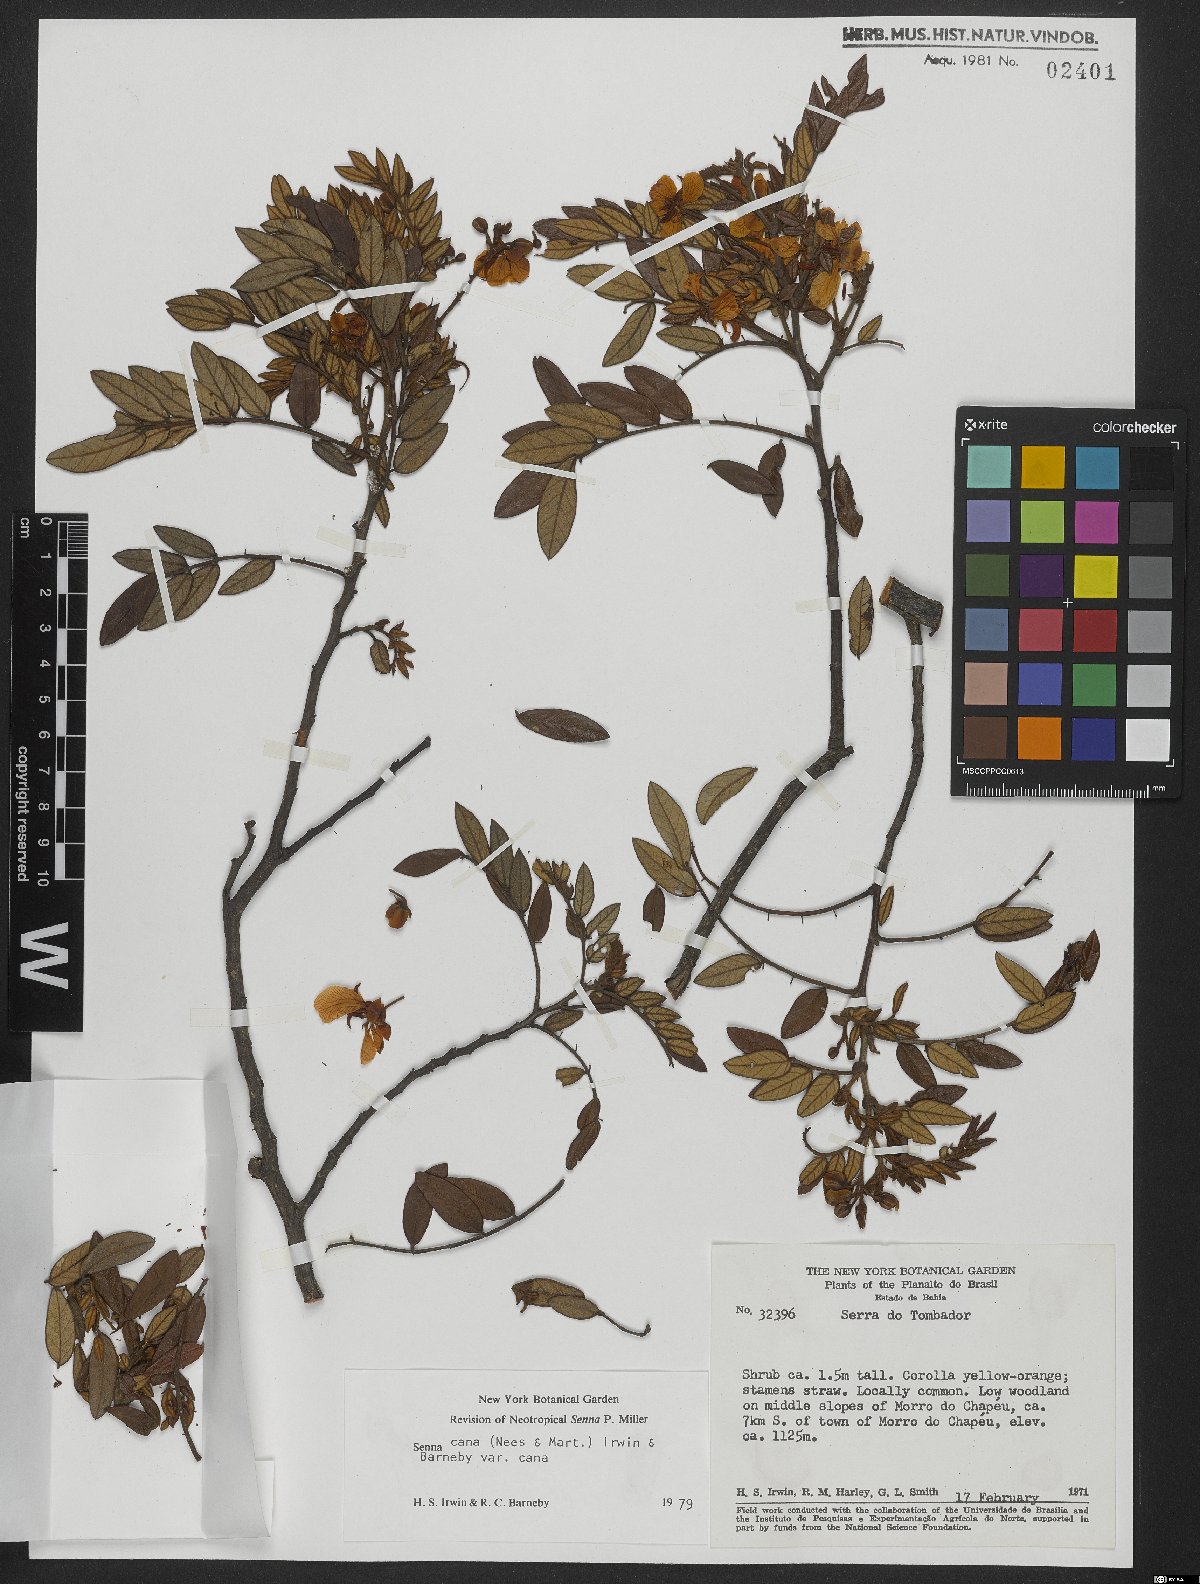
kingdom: Plantae
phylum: Tracheophyta
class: Magnoliopsida
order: Fabales
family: Fabaceae
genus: Senna
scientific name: Senna cana
